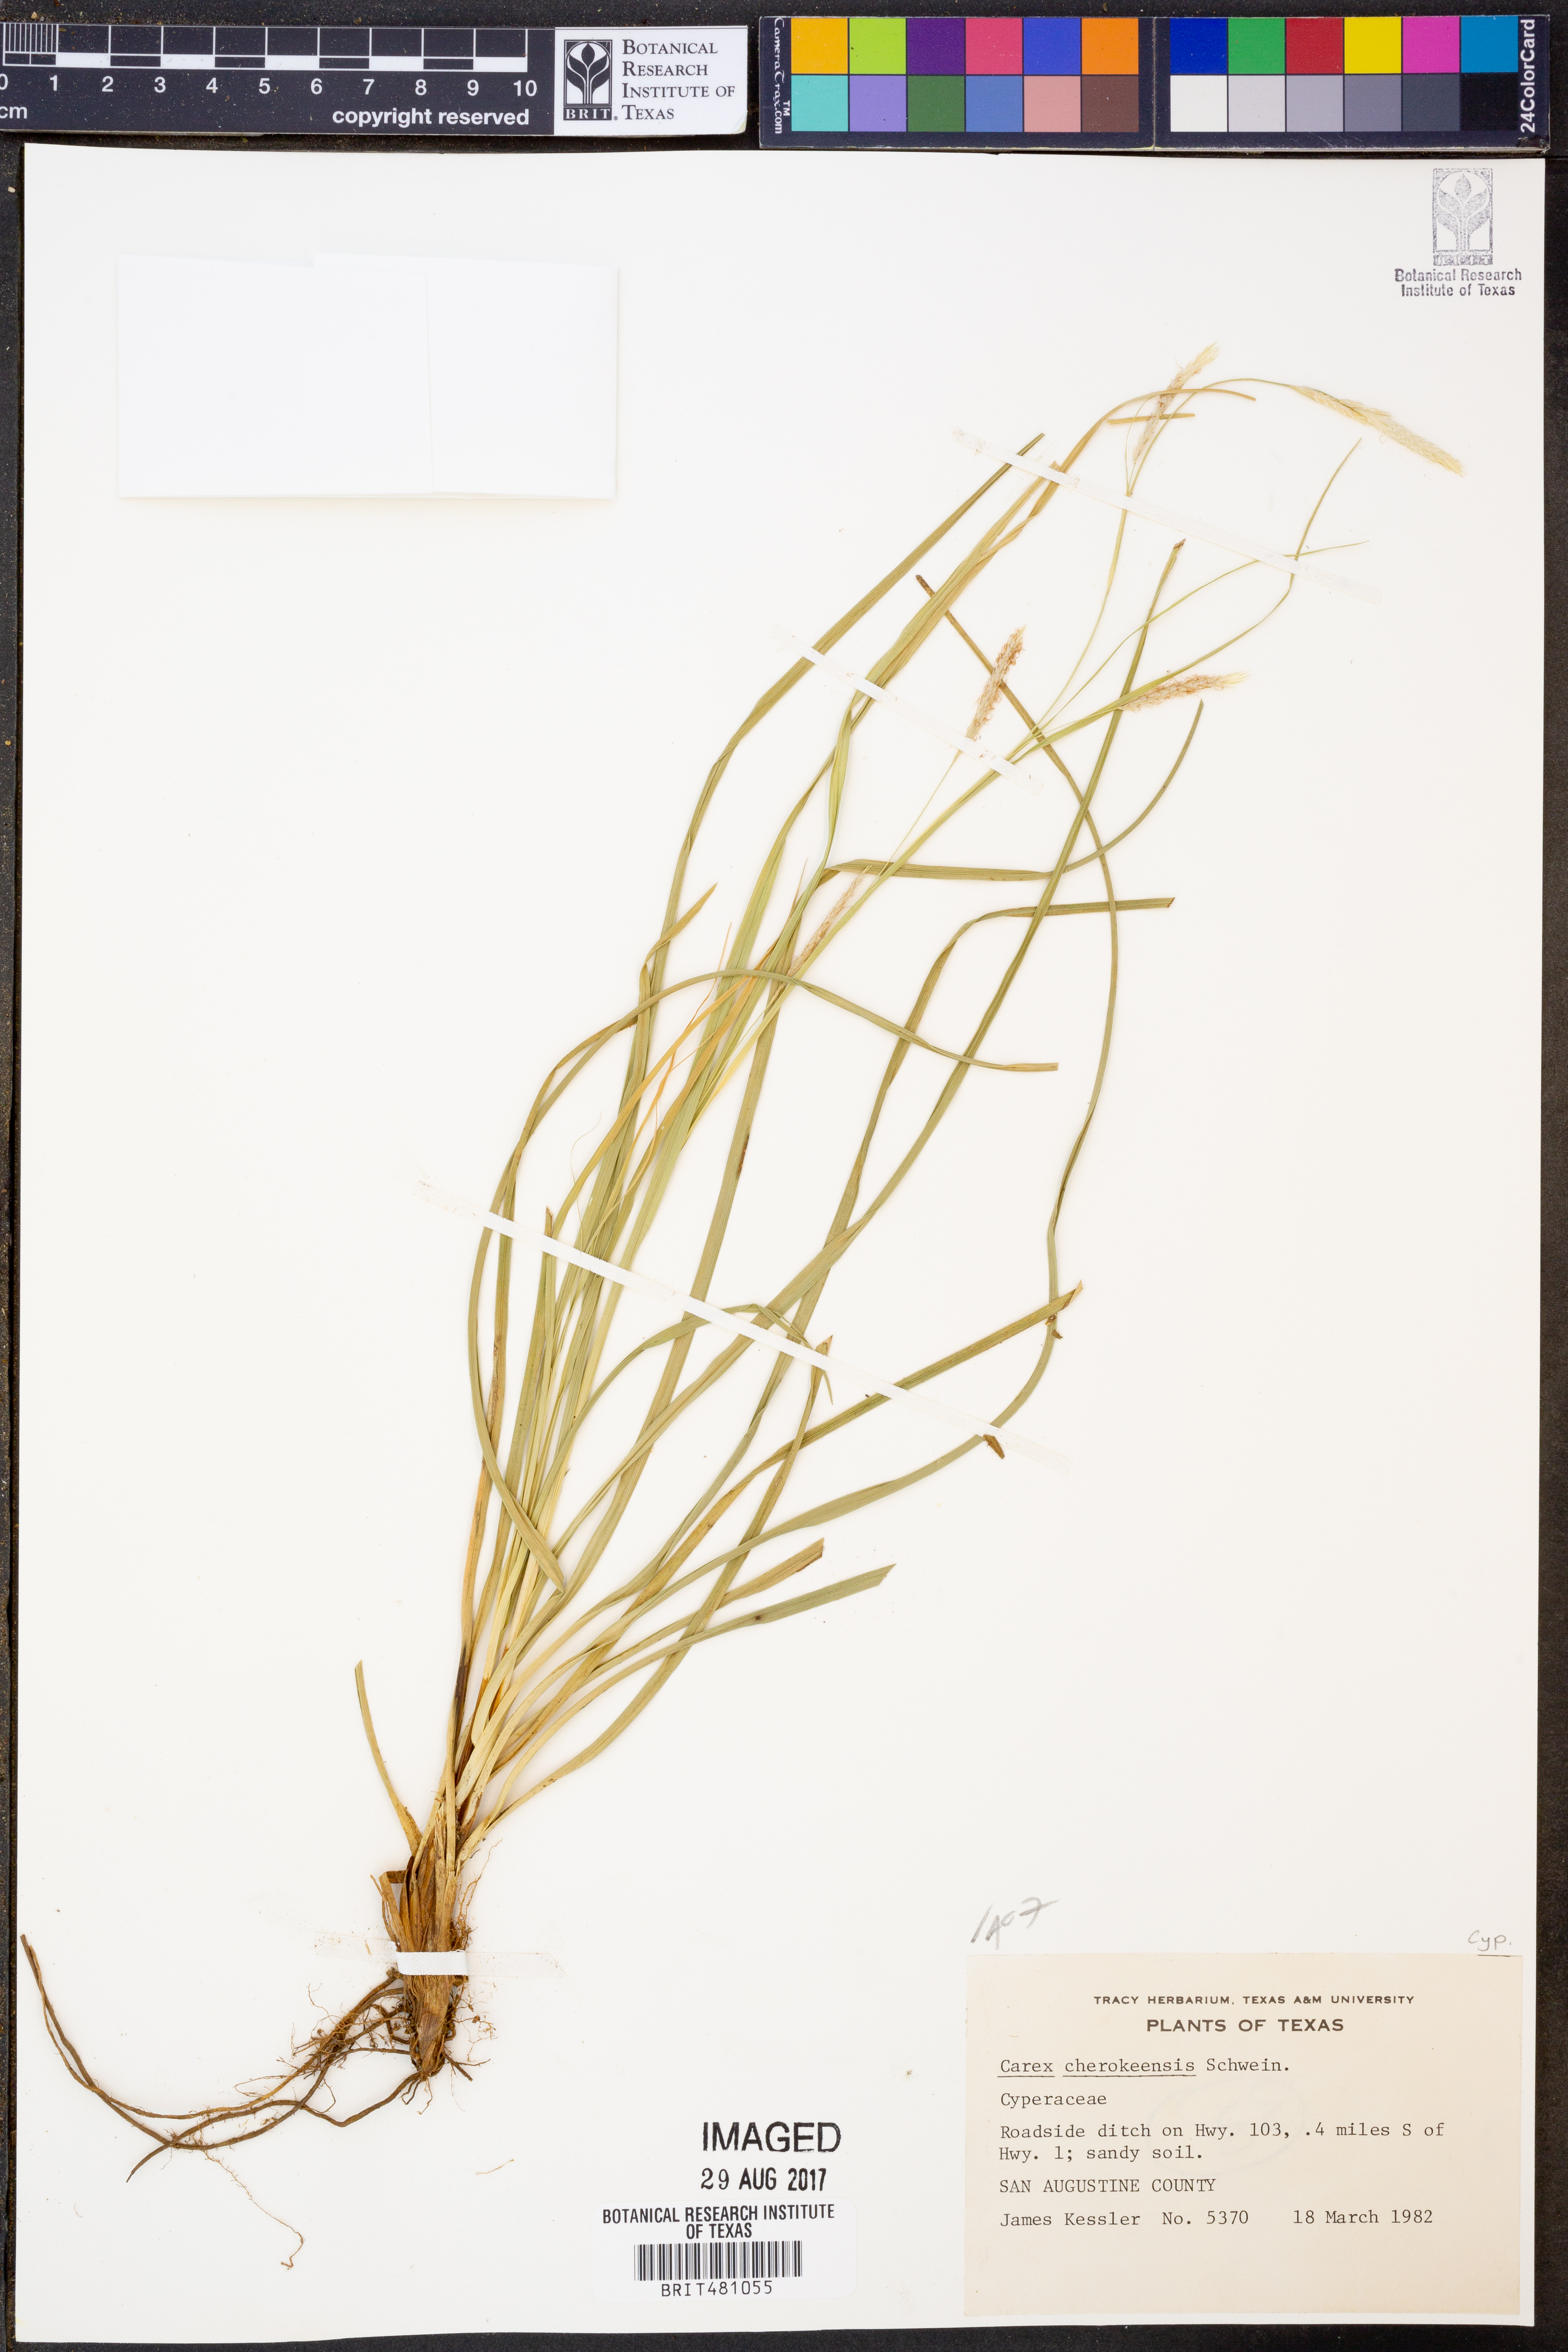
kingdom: Plantae
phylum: Tracheophyta
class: Liliopsida
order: Poales
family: Cyperaceae
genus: Carex
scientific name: Carex cherokeensis
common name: Cherokee sedge
